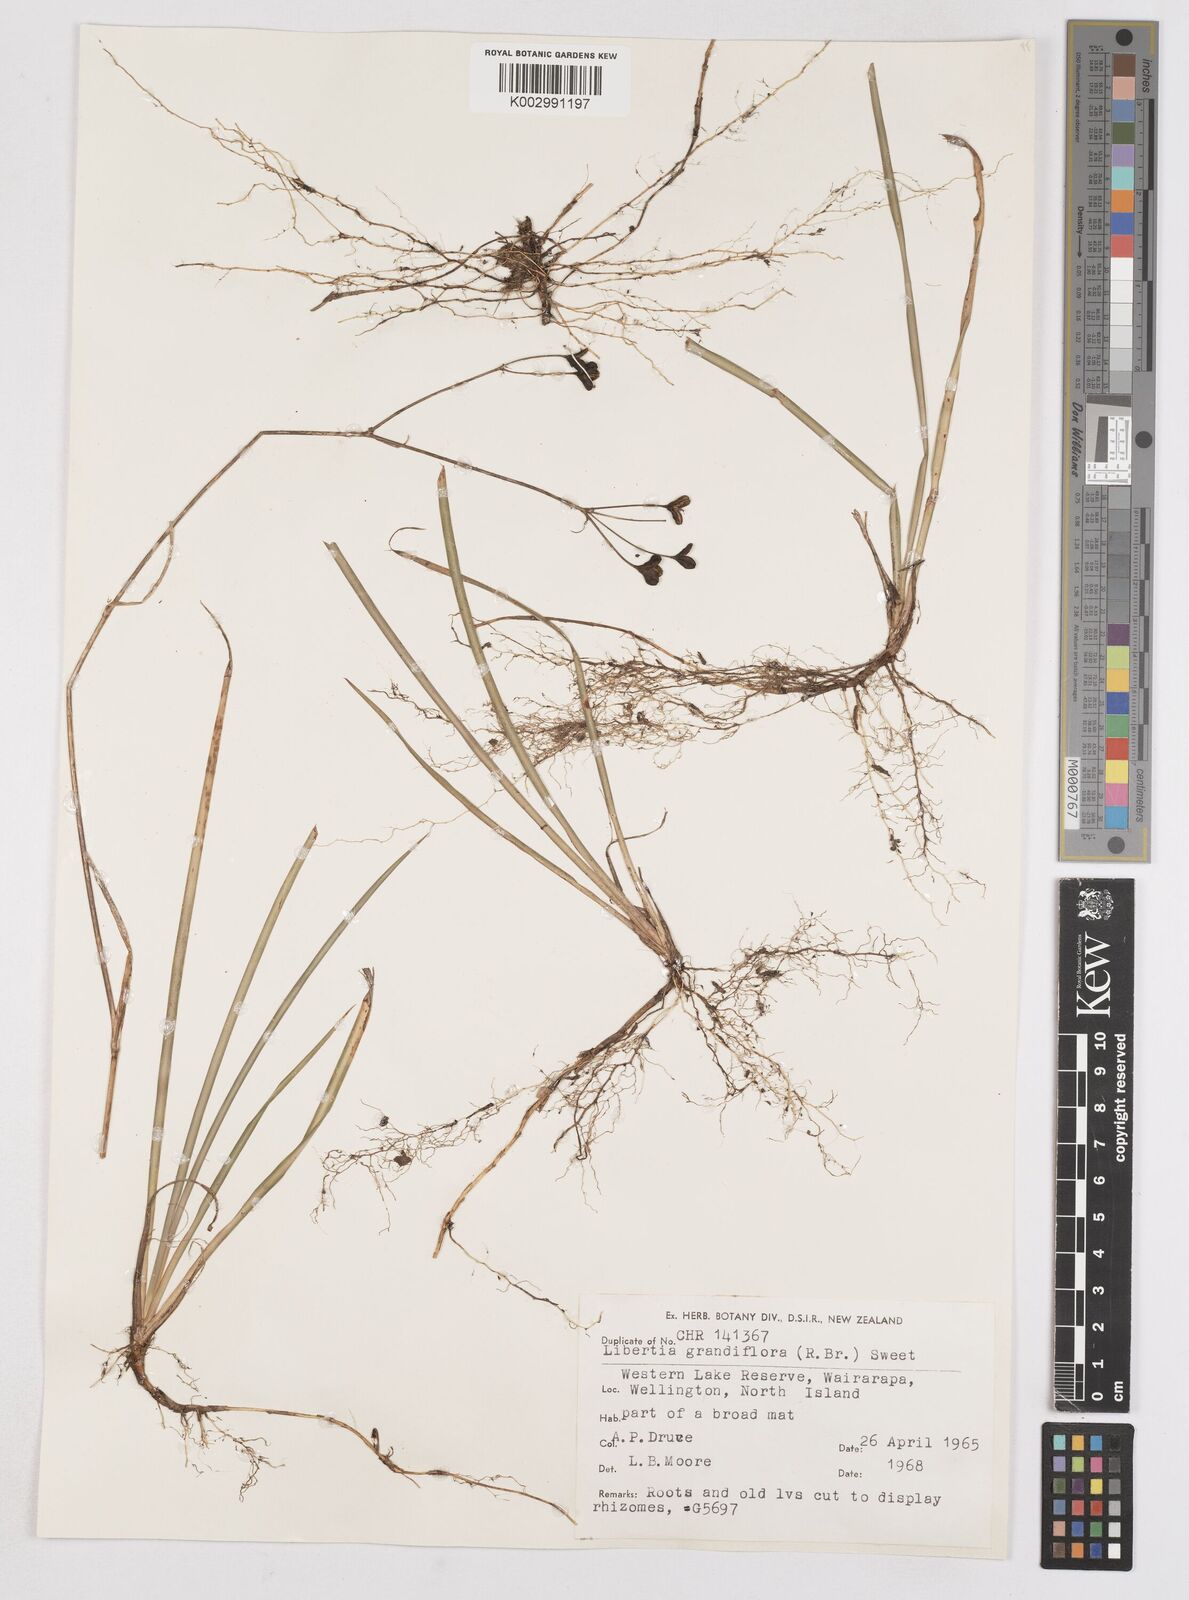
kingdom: Plantae
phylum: Tracheophyta
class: Liliopsida
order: Asparagales
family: Iridaceae
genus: Libertia
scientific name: Libertia grandiflora
